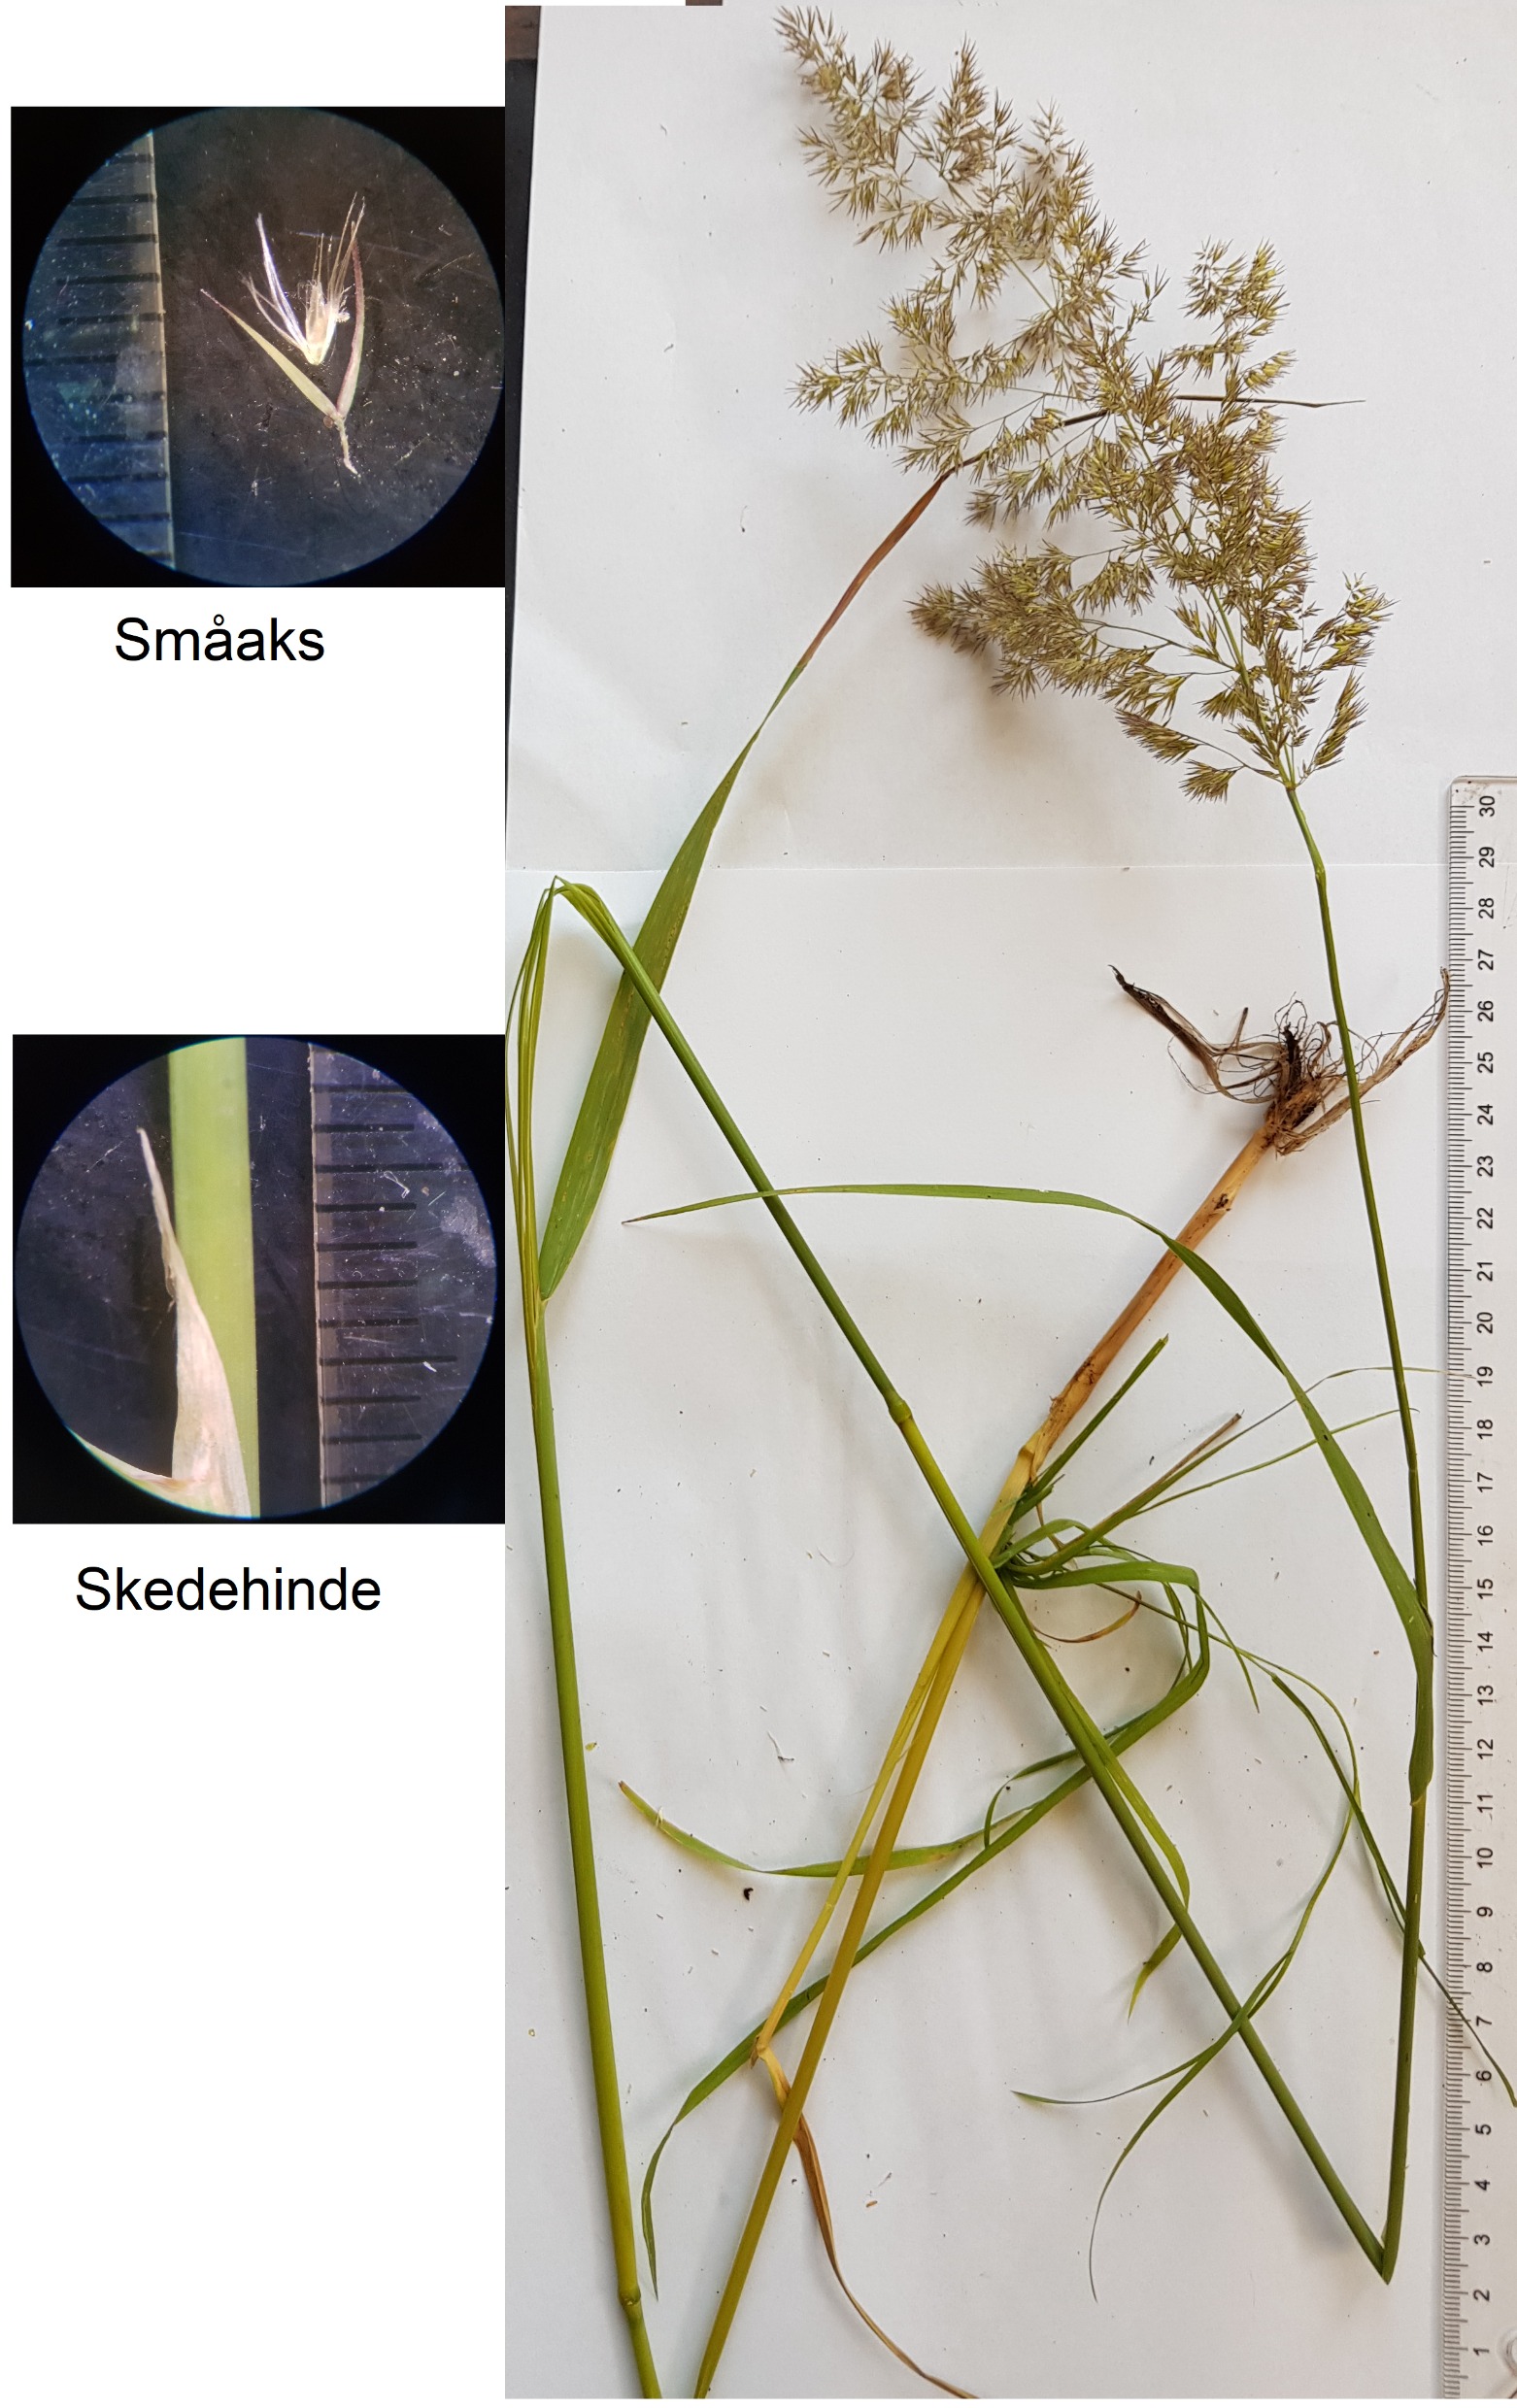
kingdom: Plantae
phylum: Tracheophyta
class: Liliopsida
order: Poales
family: Poaceae
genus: Calamagrostis
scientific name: Calamagrostis epigejos
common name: Bjerg-rørhvene
